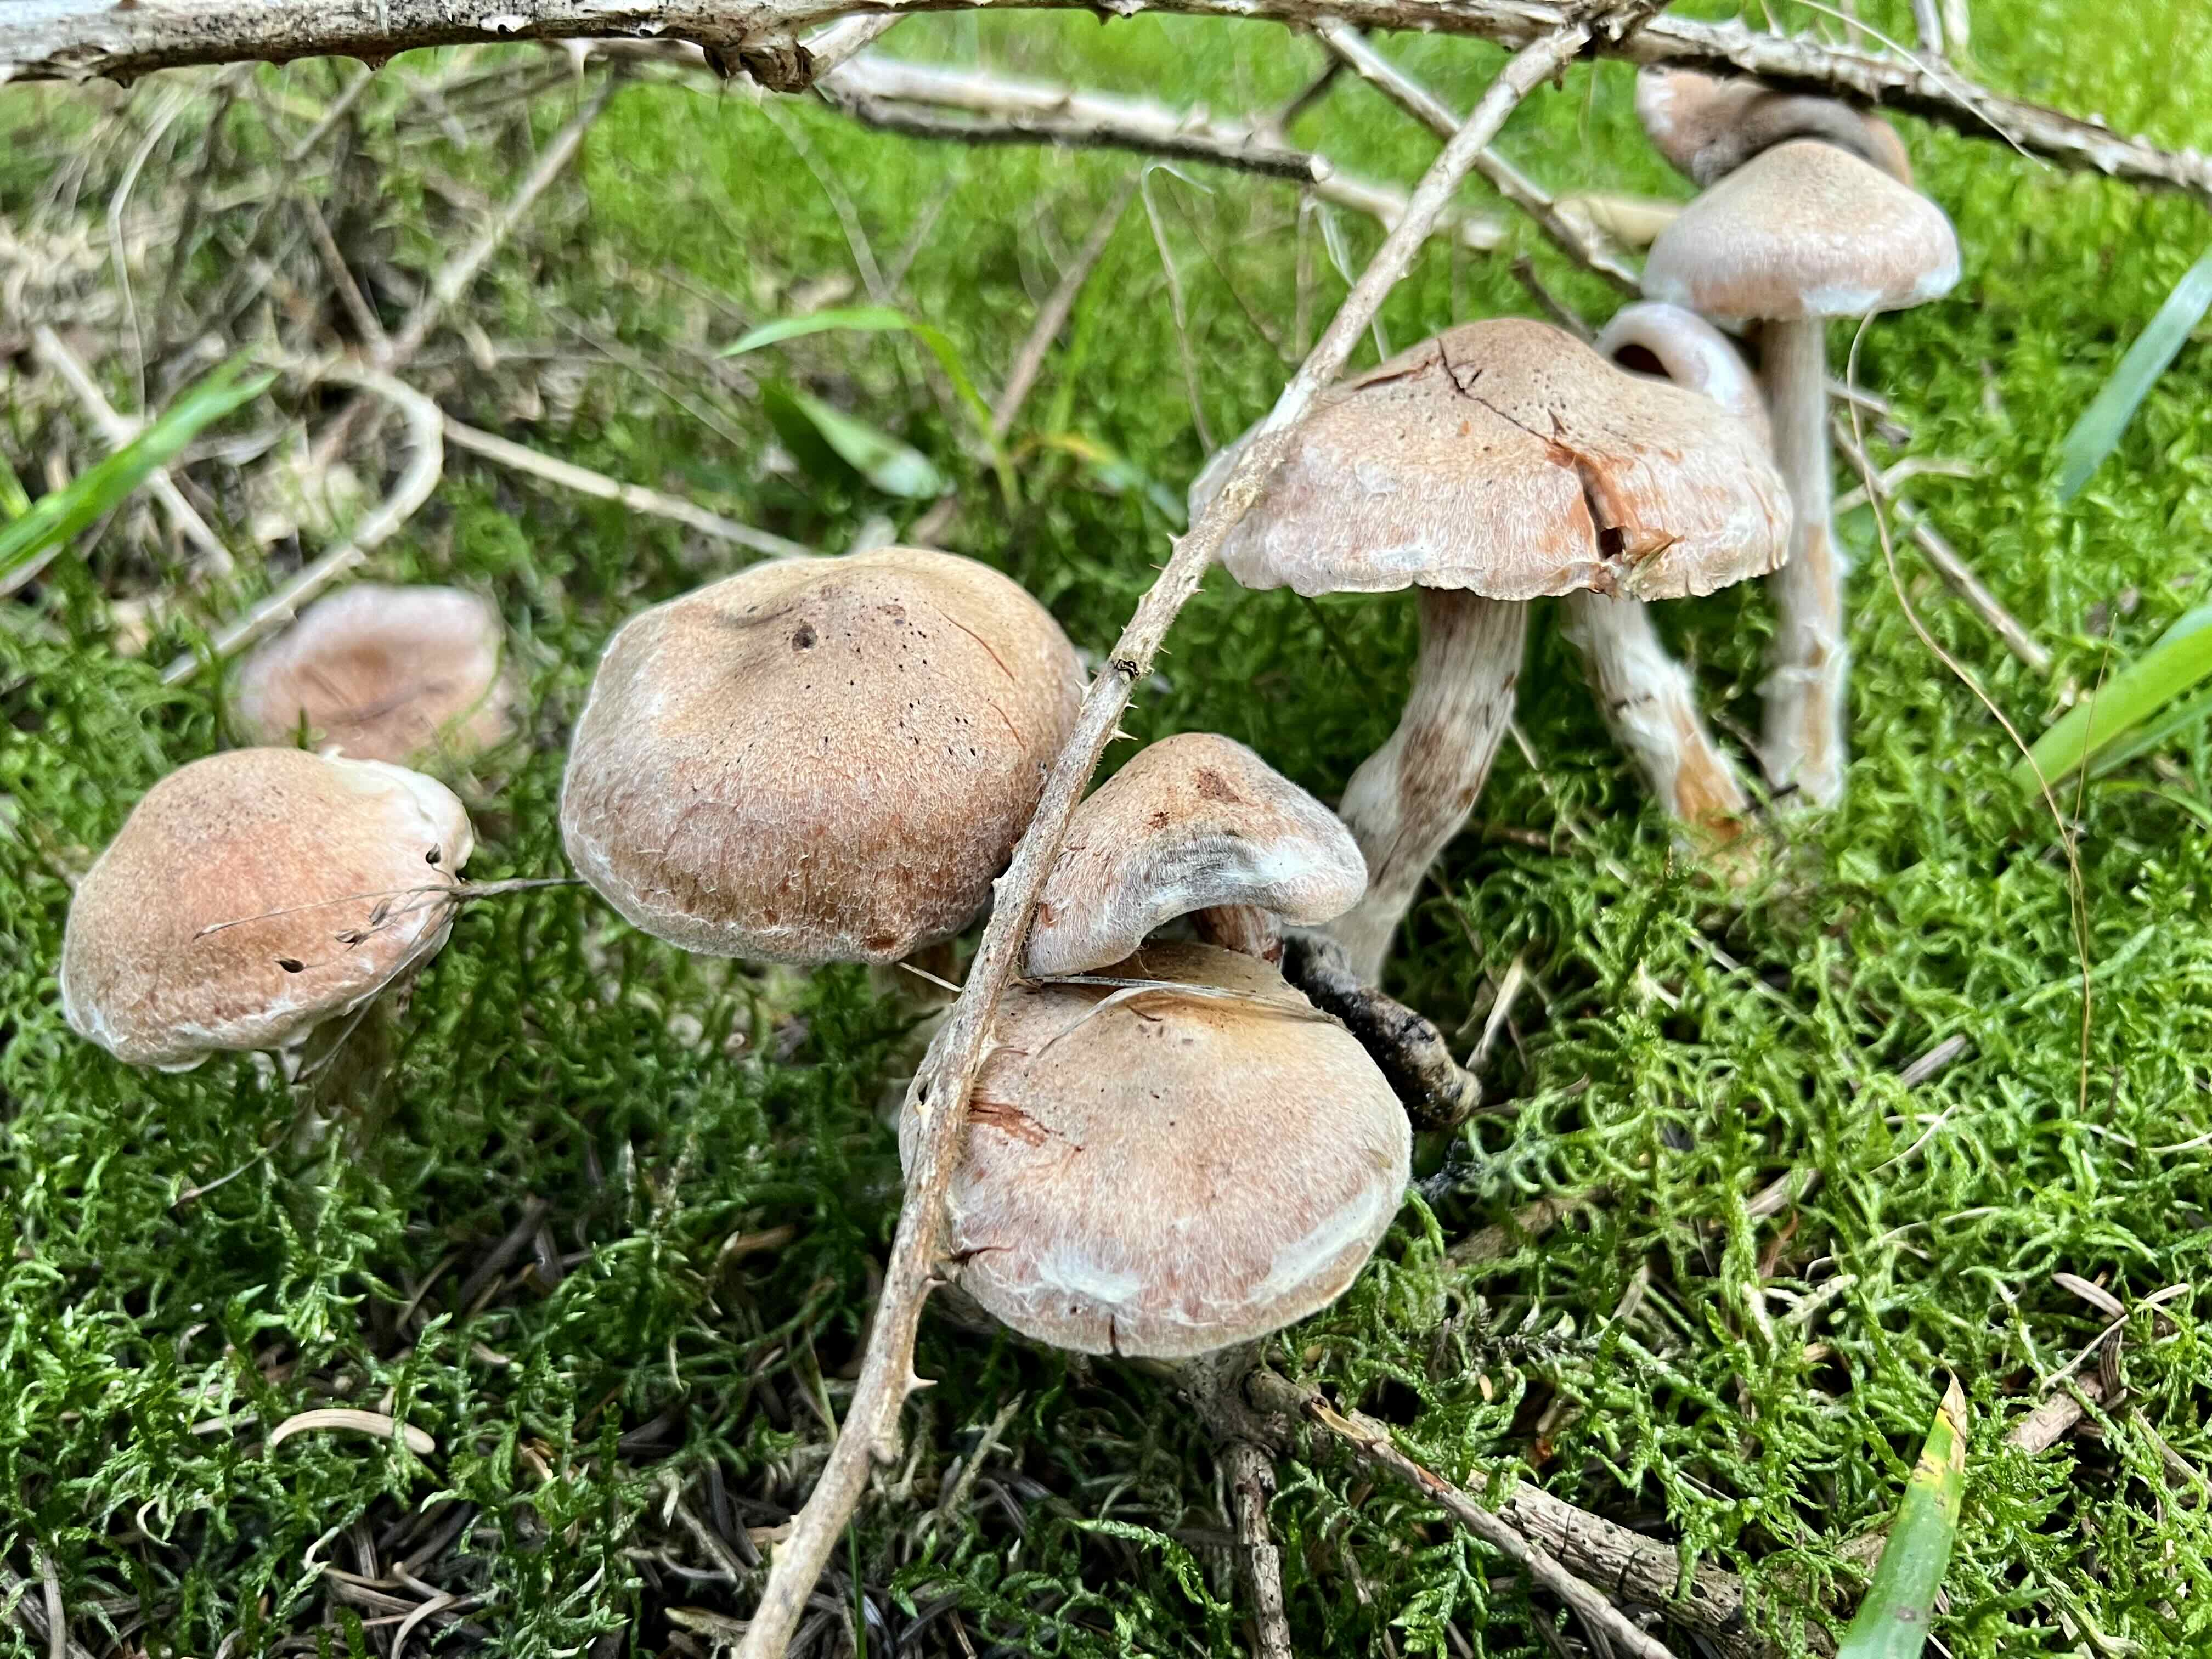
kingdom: Fungi
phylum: Basidiomycota
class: Agaricomycetes
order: Agaricales
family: Cortinariaceae
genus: Cortinarius
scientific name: Cortinarius
